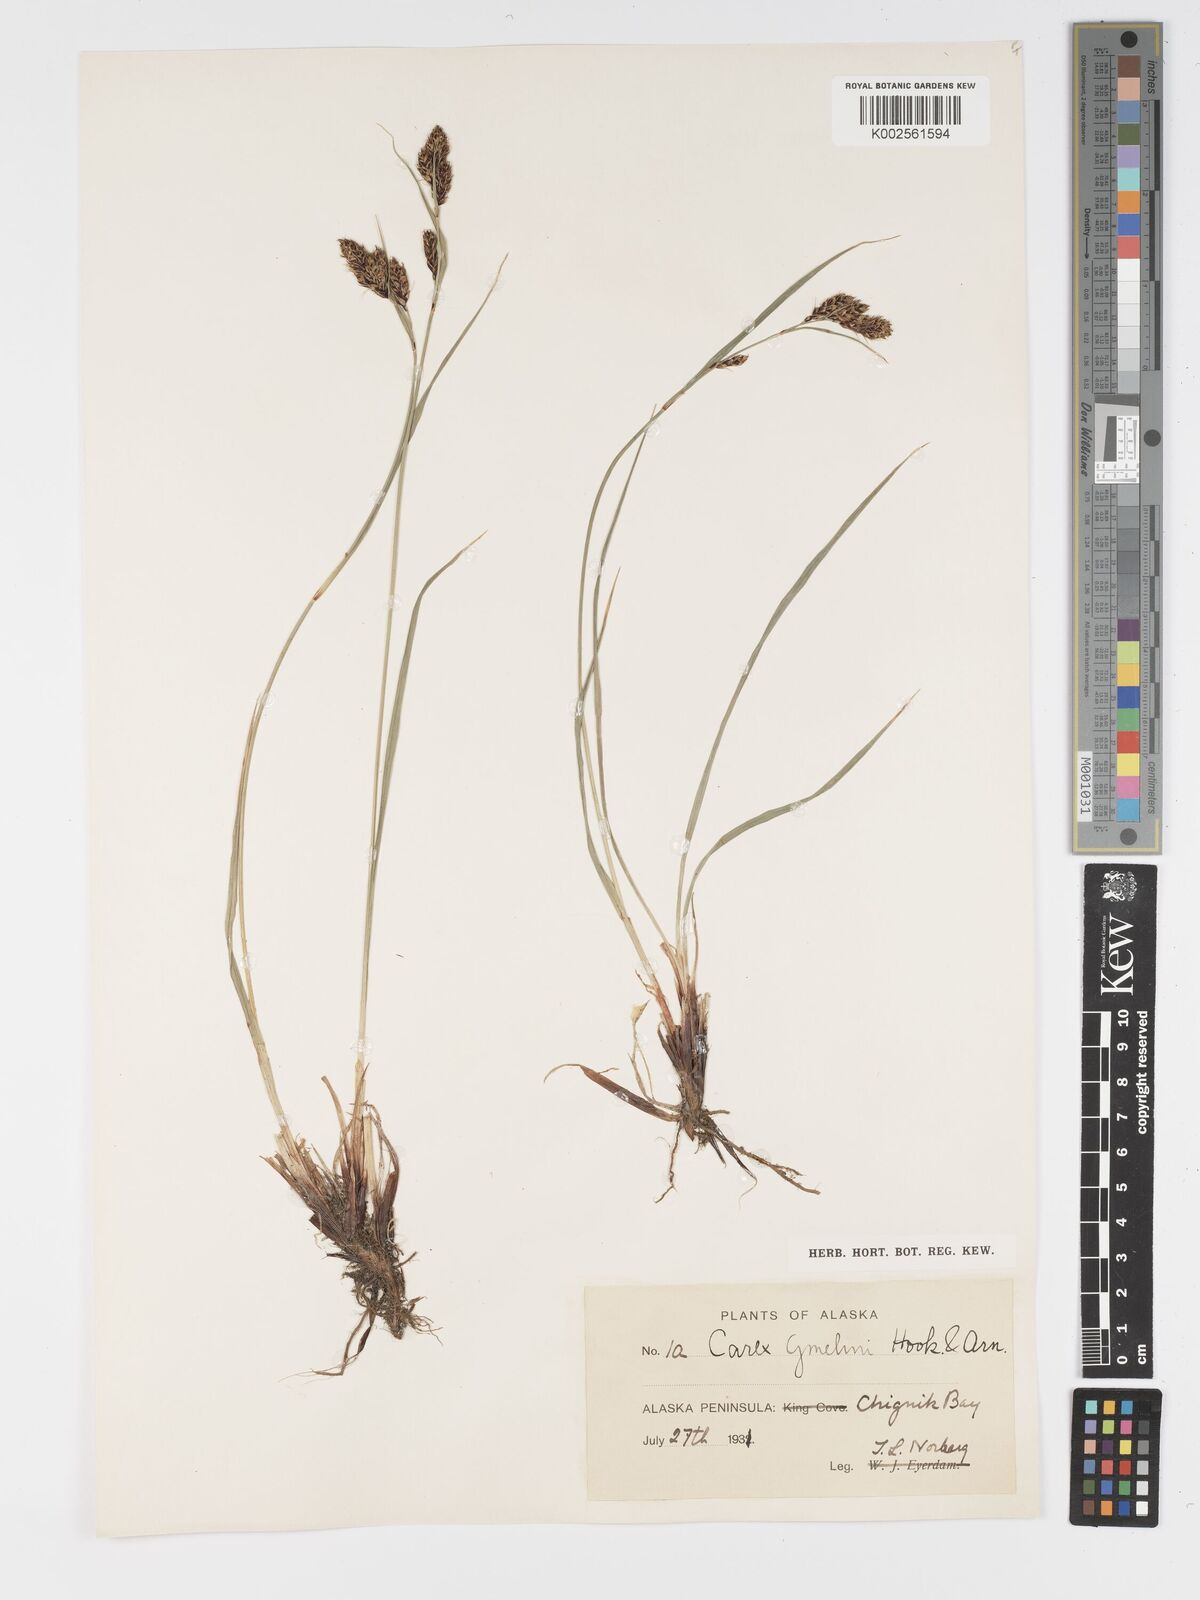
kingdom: Plantae
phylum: Tracheophyta
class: Liliopsida
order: Poales
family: Cyperaceae
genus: Carex
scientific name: Carex gmelinii
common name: Gmelin's sedge
